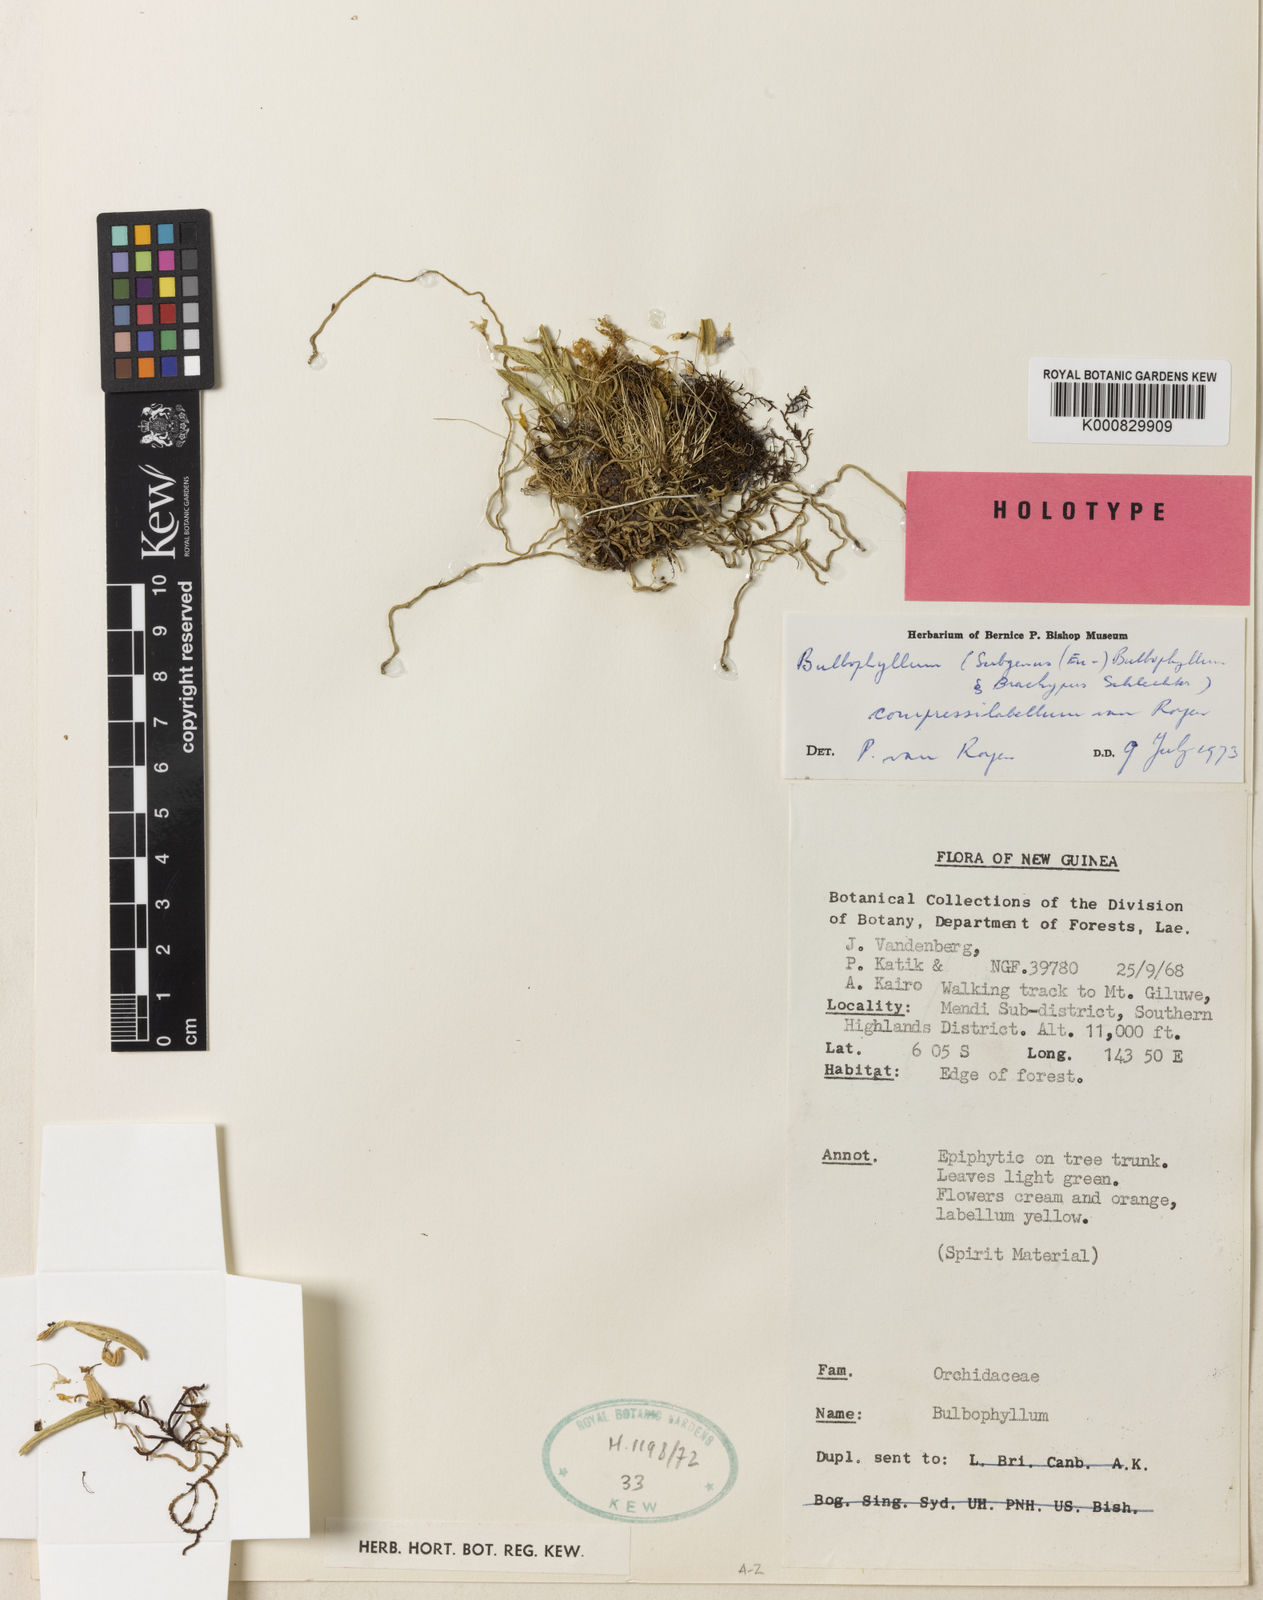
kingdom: Plantae
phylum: Tracheophyta
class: Liliopsida
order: Asparagales
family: Orchidaceae
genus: Bulbophyllum
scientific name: Bulbophyllum compressilabellatum
